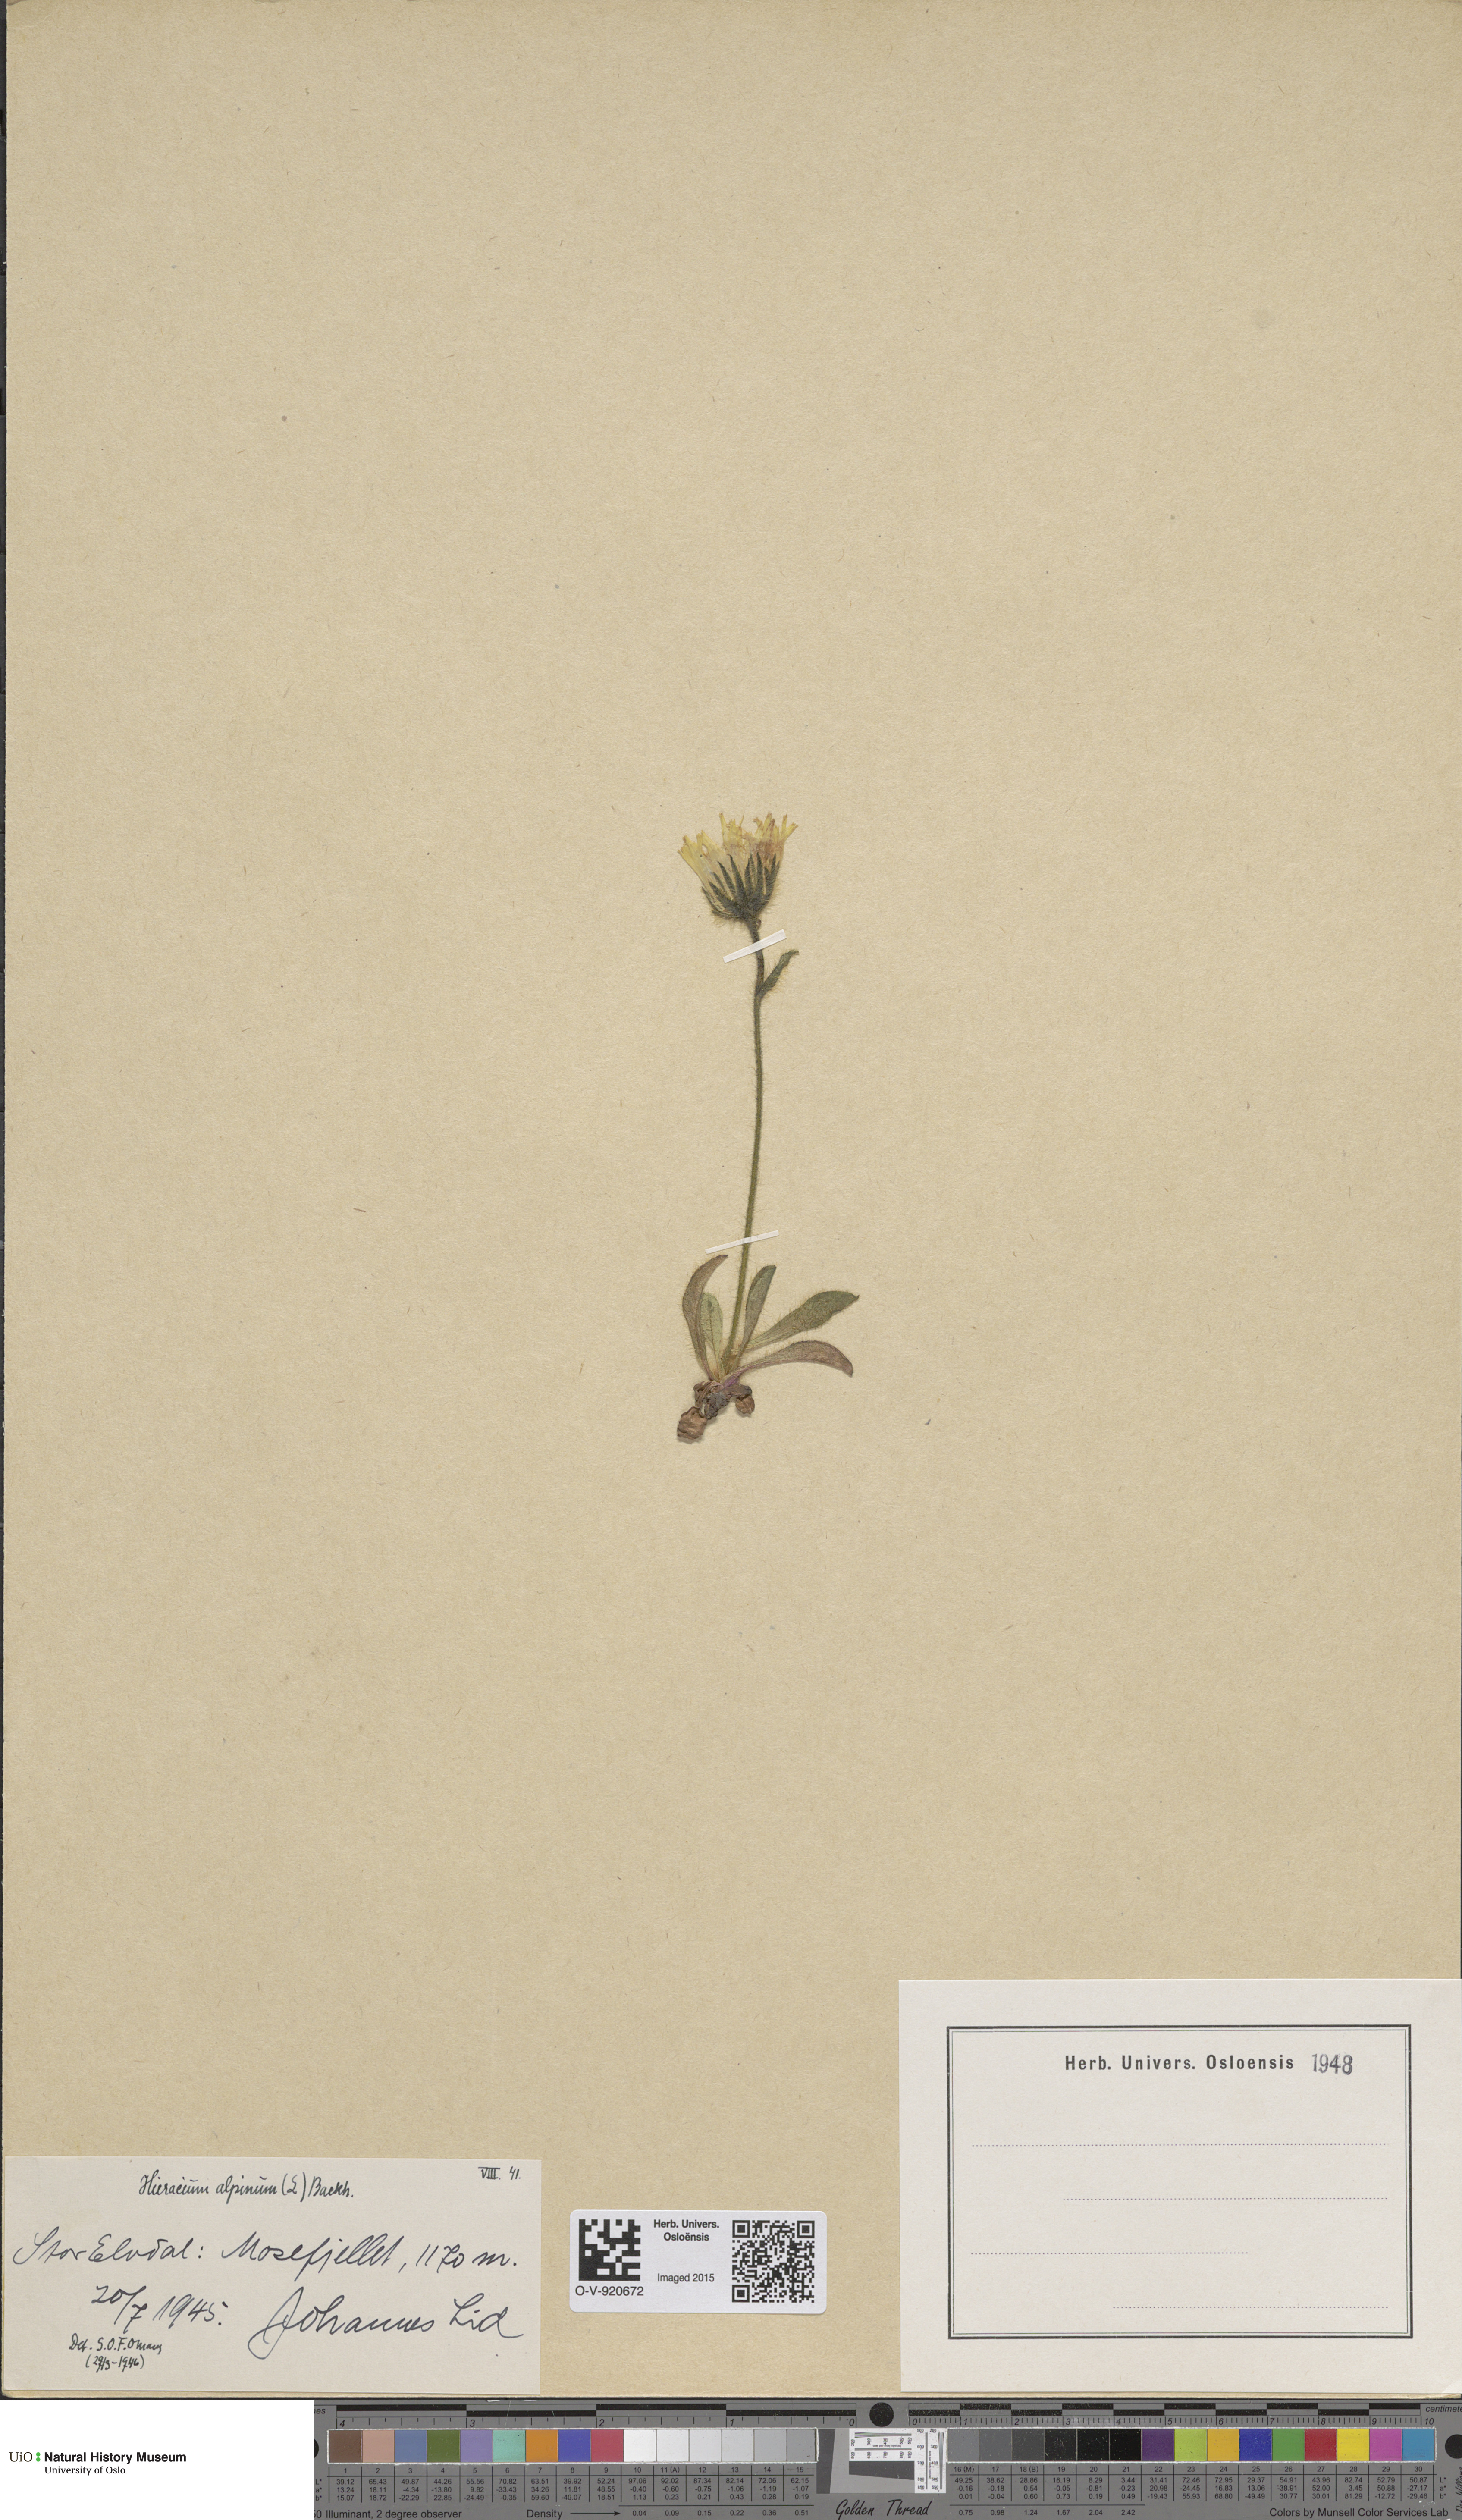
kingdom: Plantae
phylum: Tracheophyta
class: Magnoliopsida
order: Asterales
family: Asteraceae
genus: Hieracium
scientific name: Hieracium alpinum
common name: Alpine hawkweed
